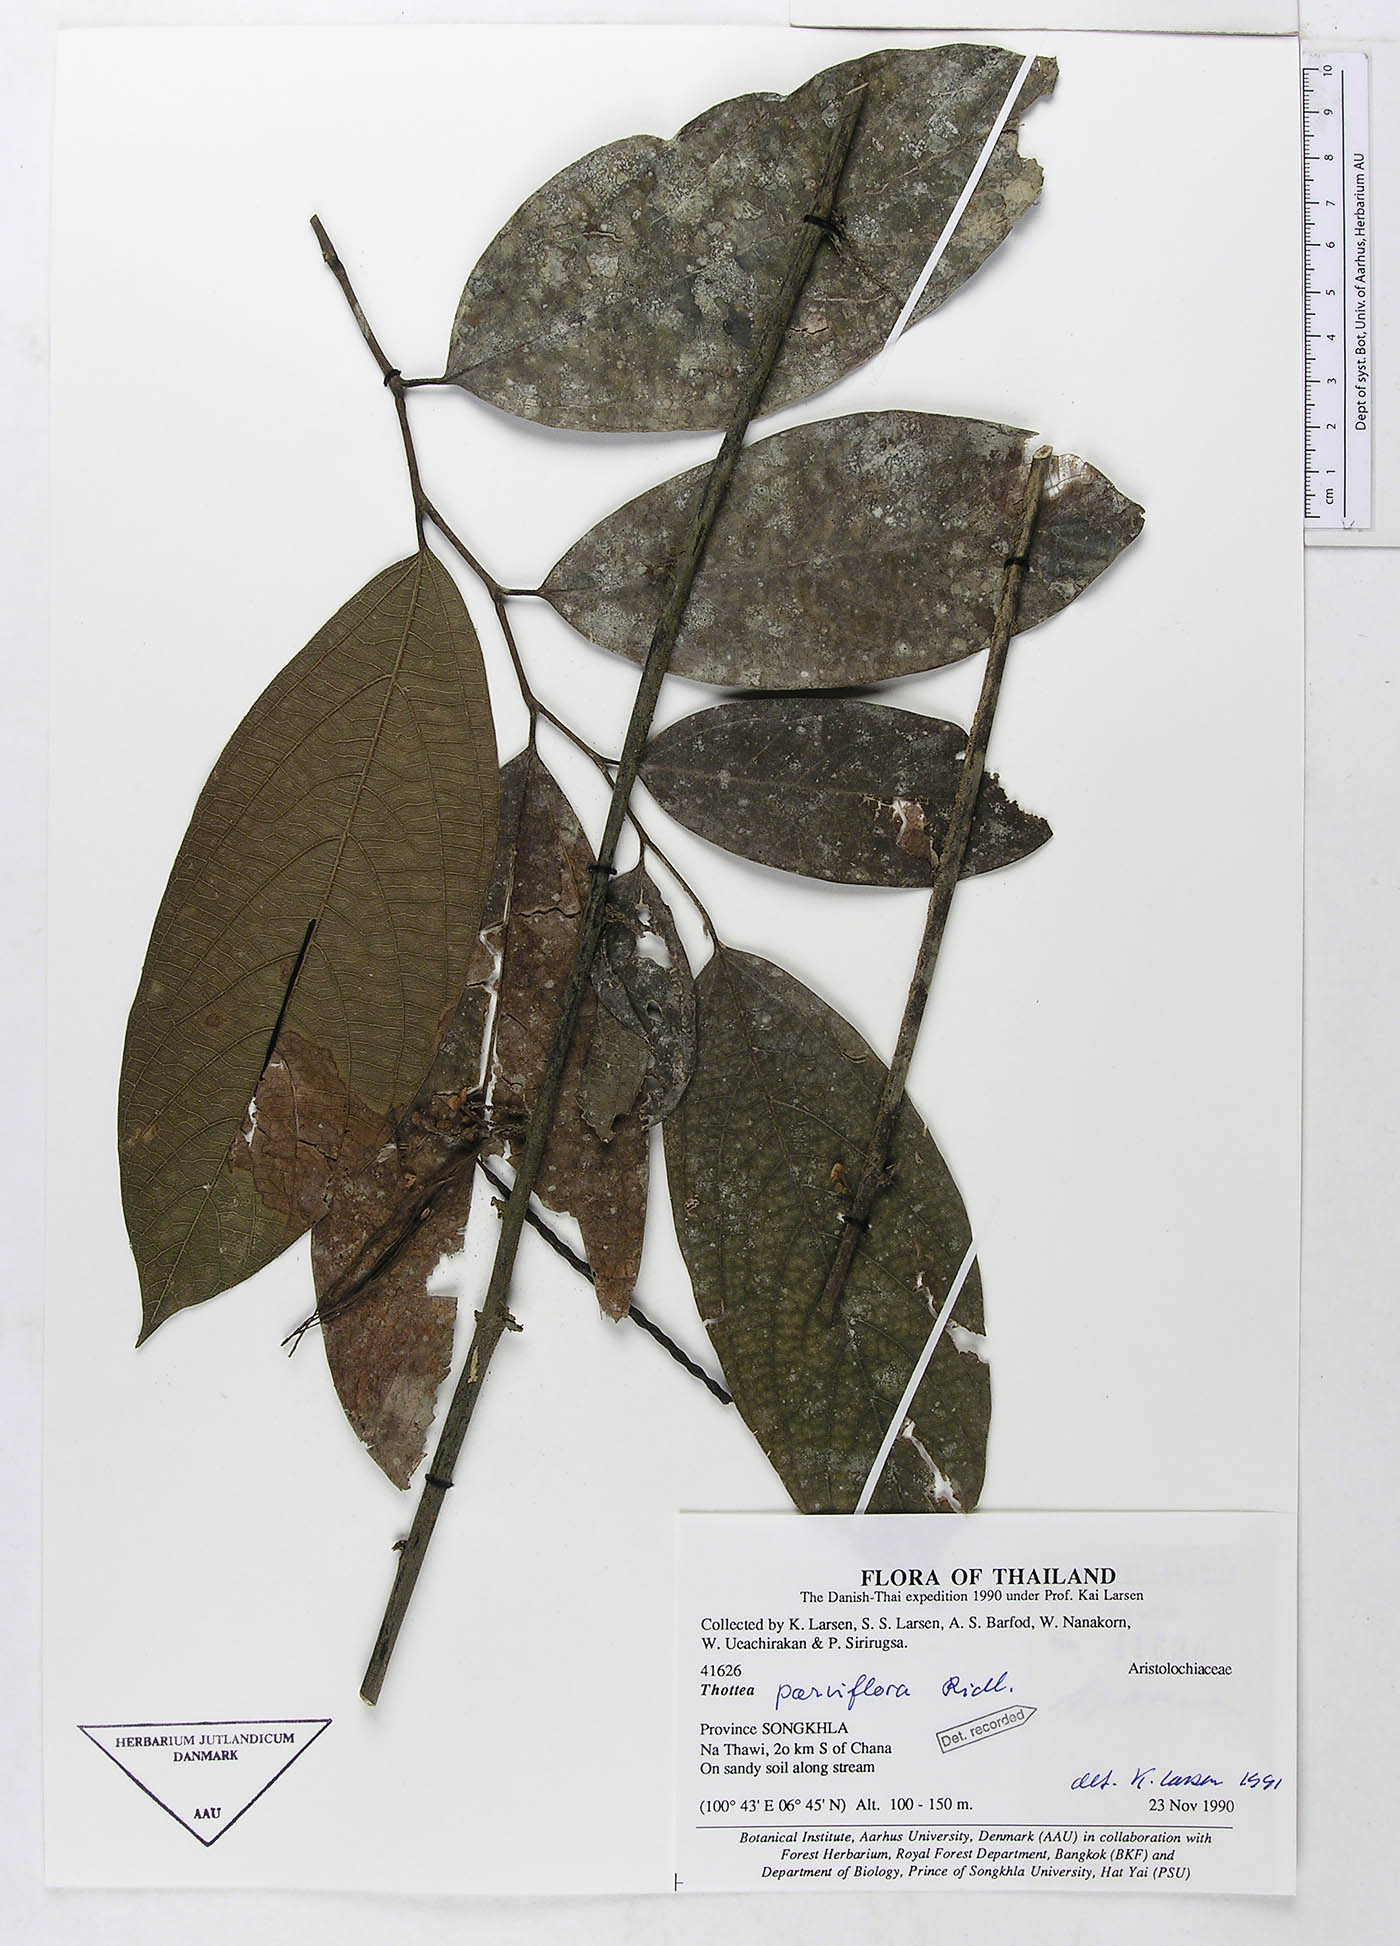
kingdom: Plantae
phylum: Tracheophyta
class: Magnoliopsida
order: Piperales
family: Aristolochiaceae
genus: Thottea
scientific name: Thottea parviflora
